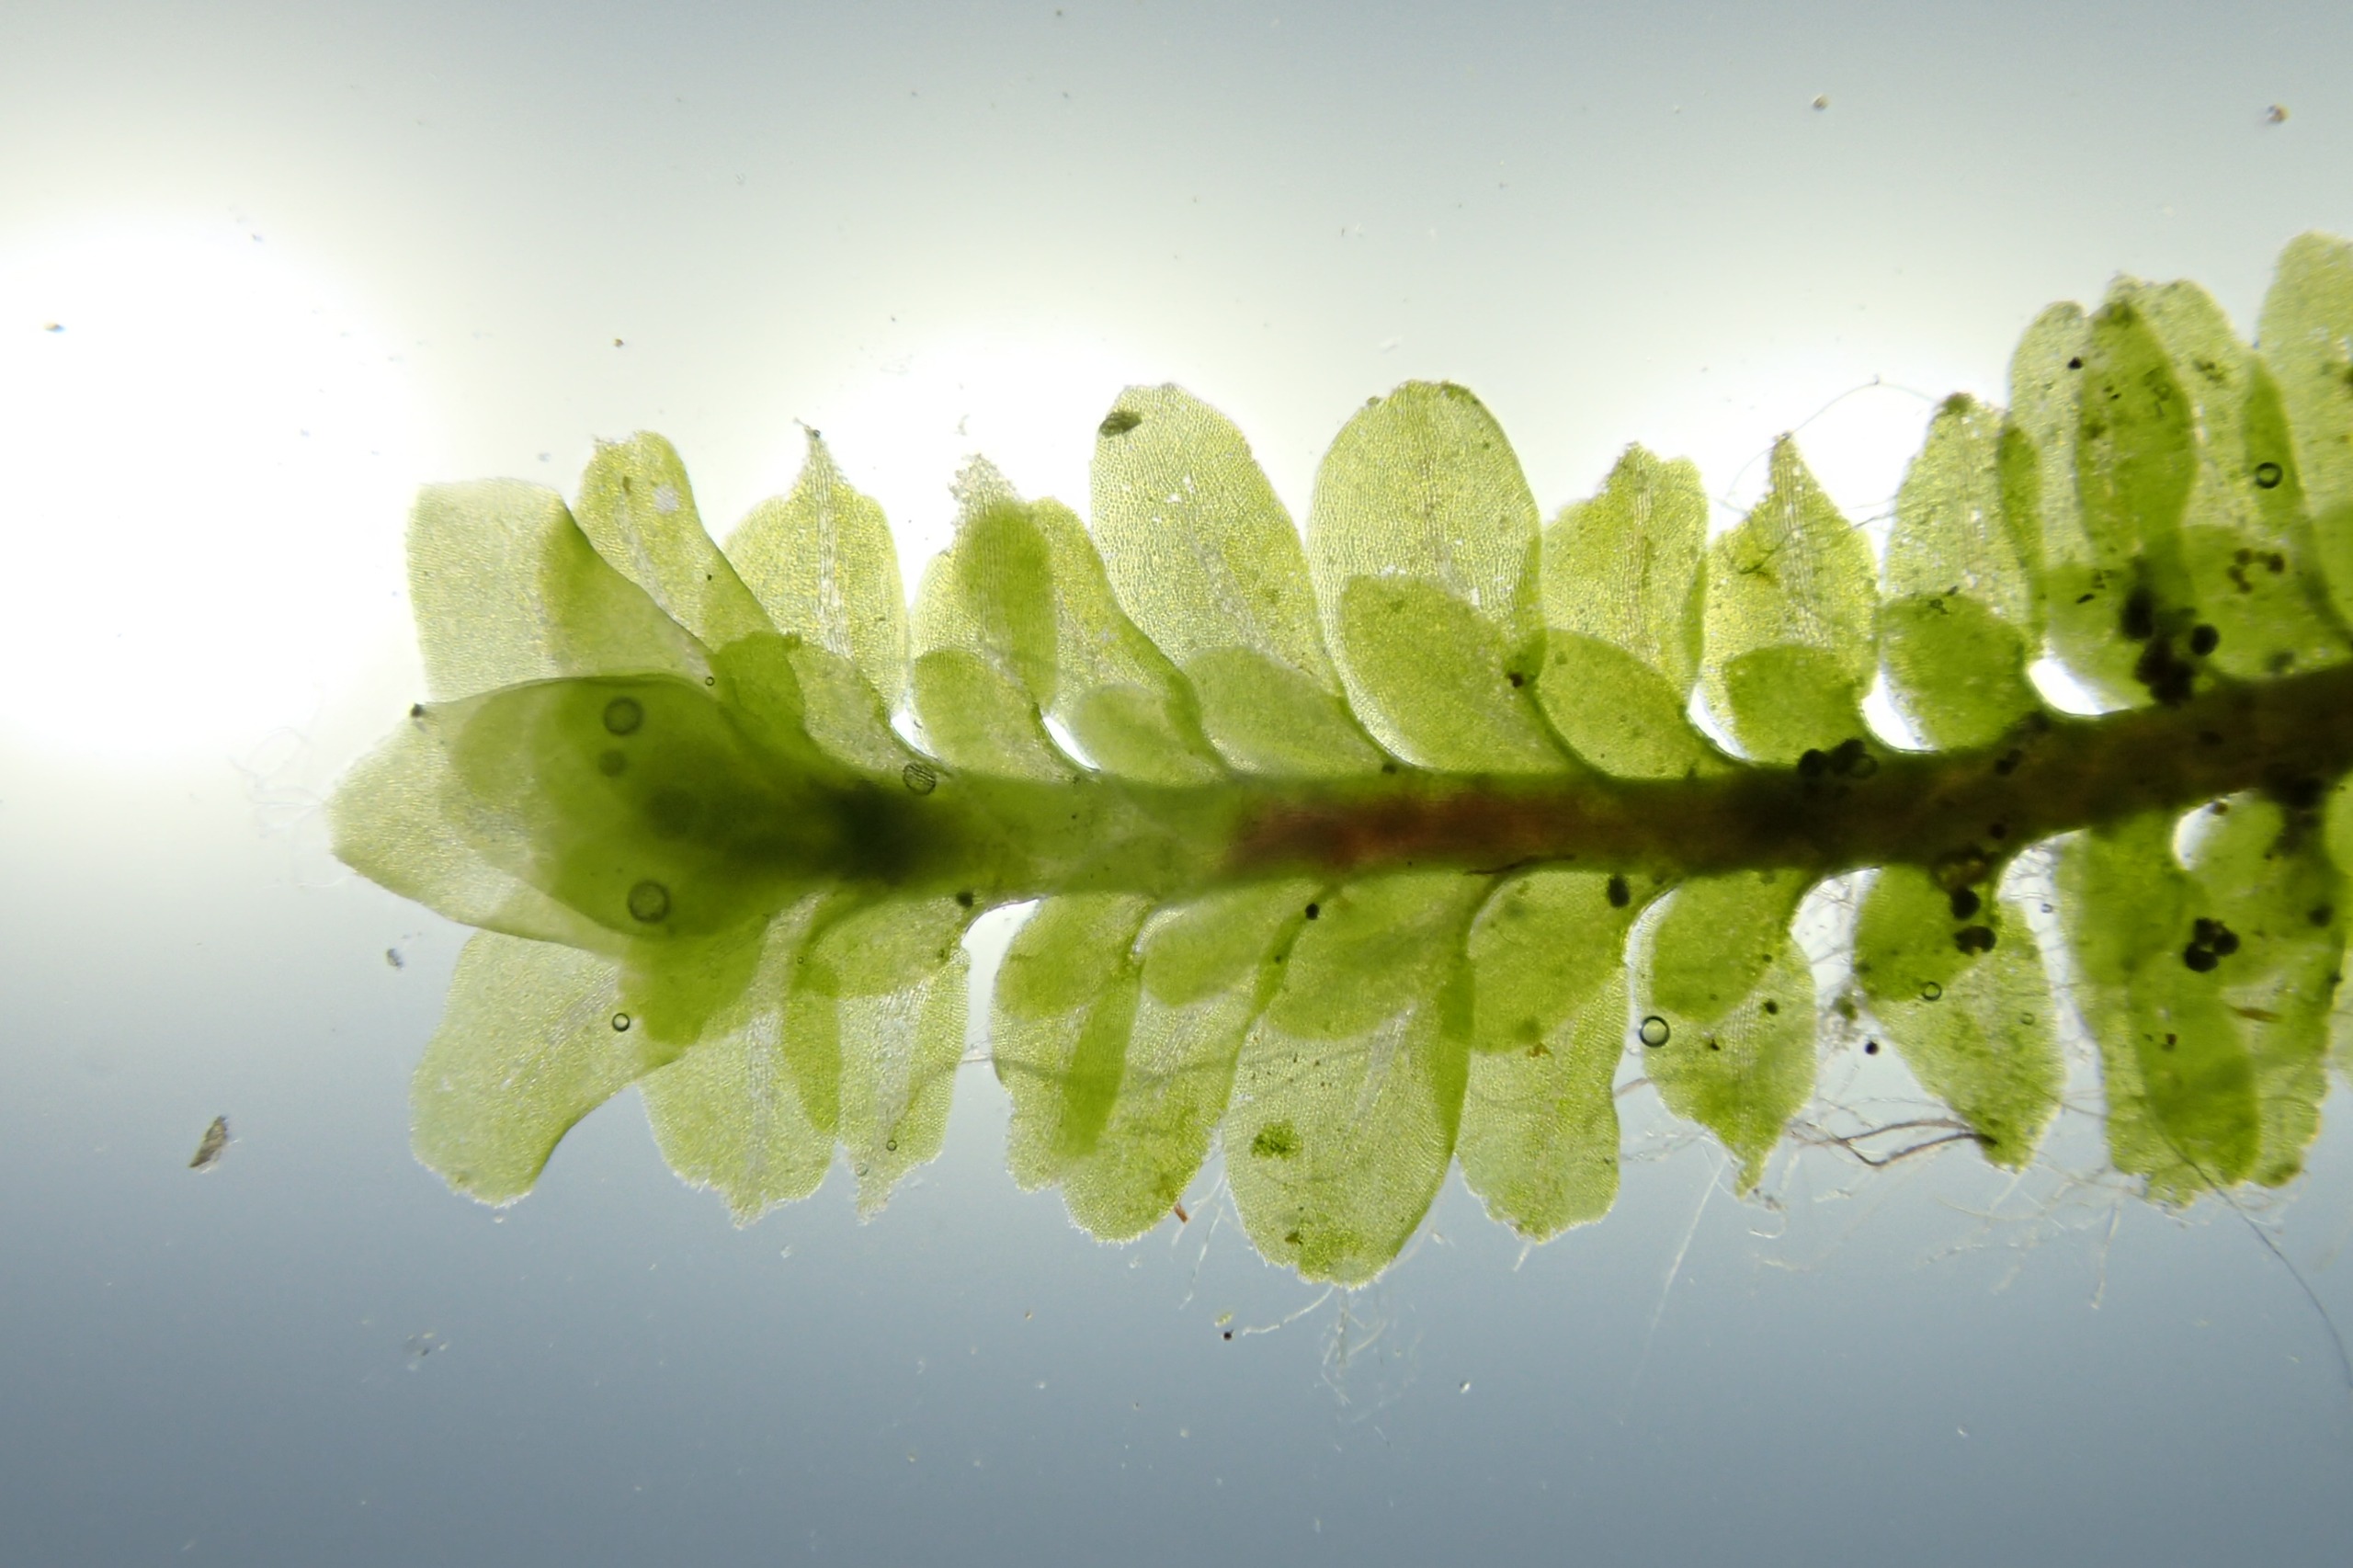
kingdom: Plantae
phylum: Marchantiophyta
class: Jungermanniopsida
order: Jungermanniales
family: Scapaniaceae
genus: Diplophyllum
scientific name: Diplophyllum albicans
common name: Stribet dobbeltblad
